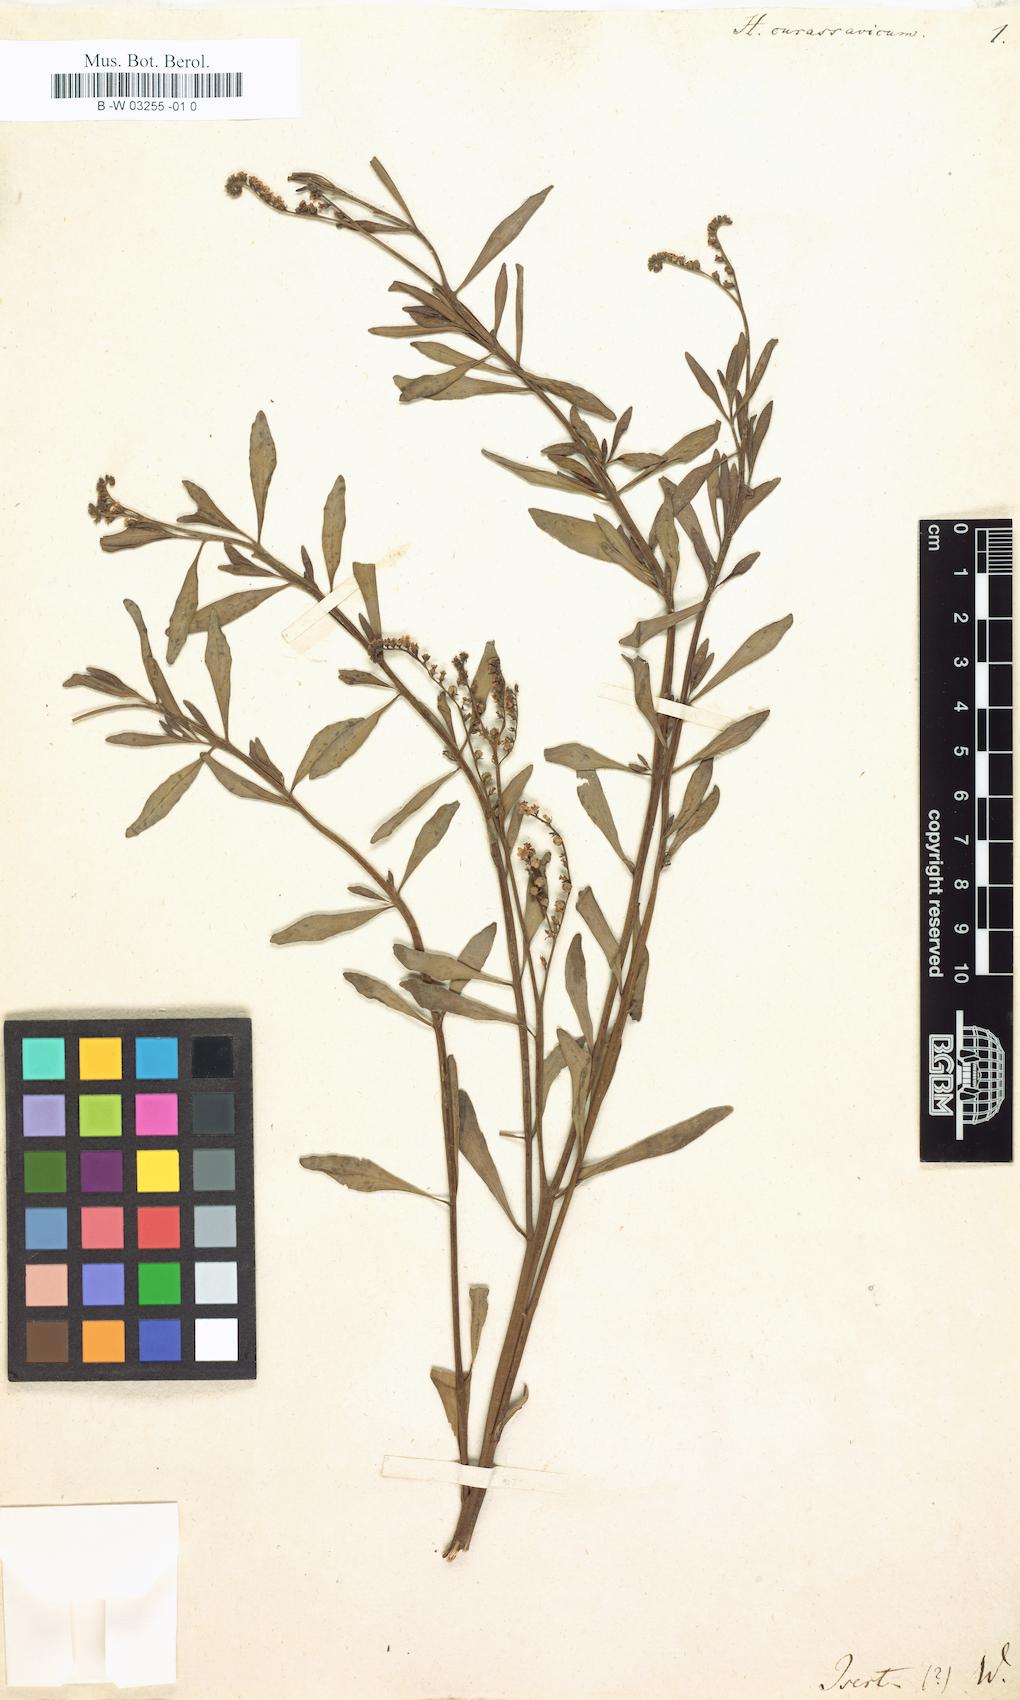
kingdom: Plantae
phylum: Tracheophyta
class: Magnoliopsida
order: Boraginales
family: Heliotropiaceae
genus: Heliotropium
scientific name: Heliotropium curassavicum
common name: Seaside heliotrope
